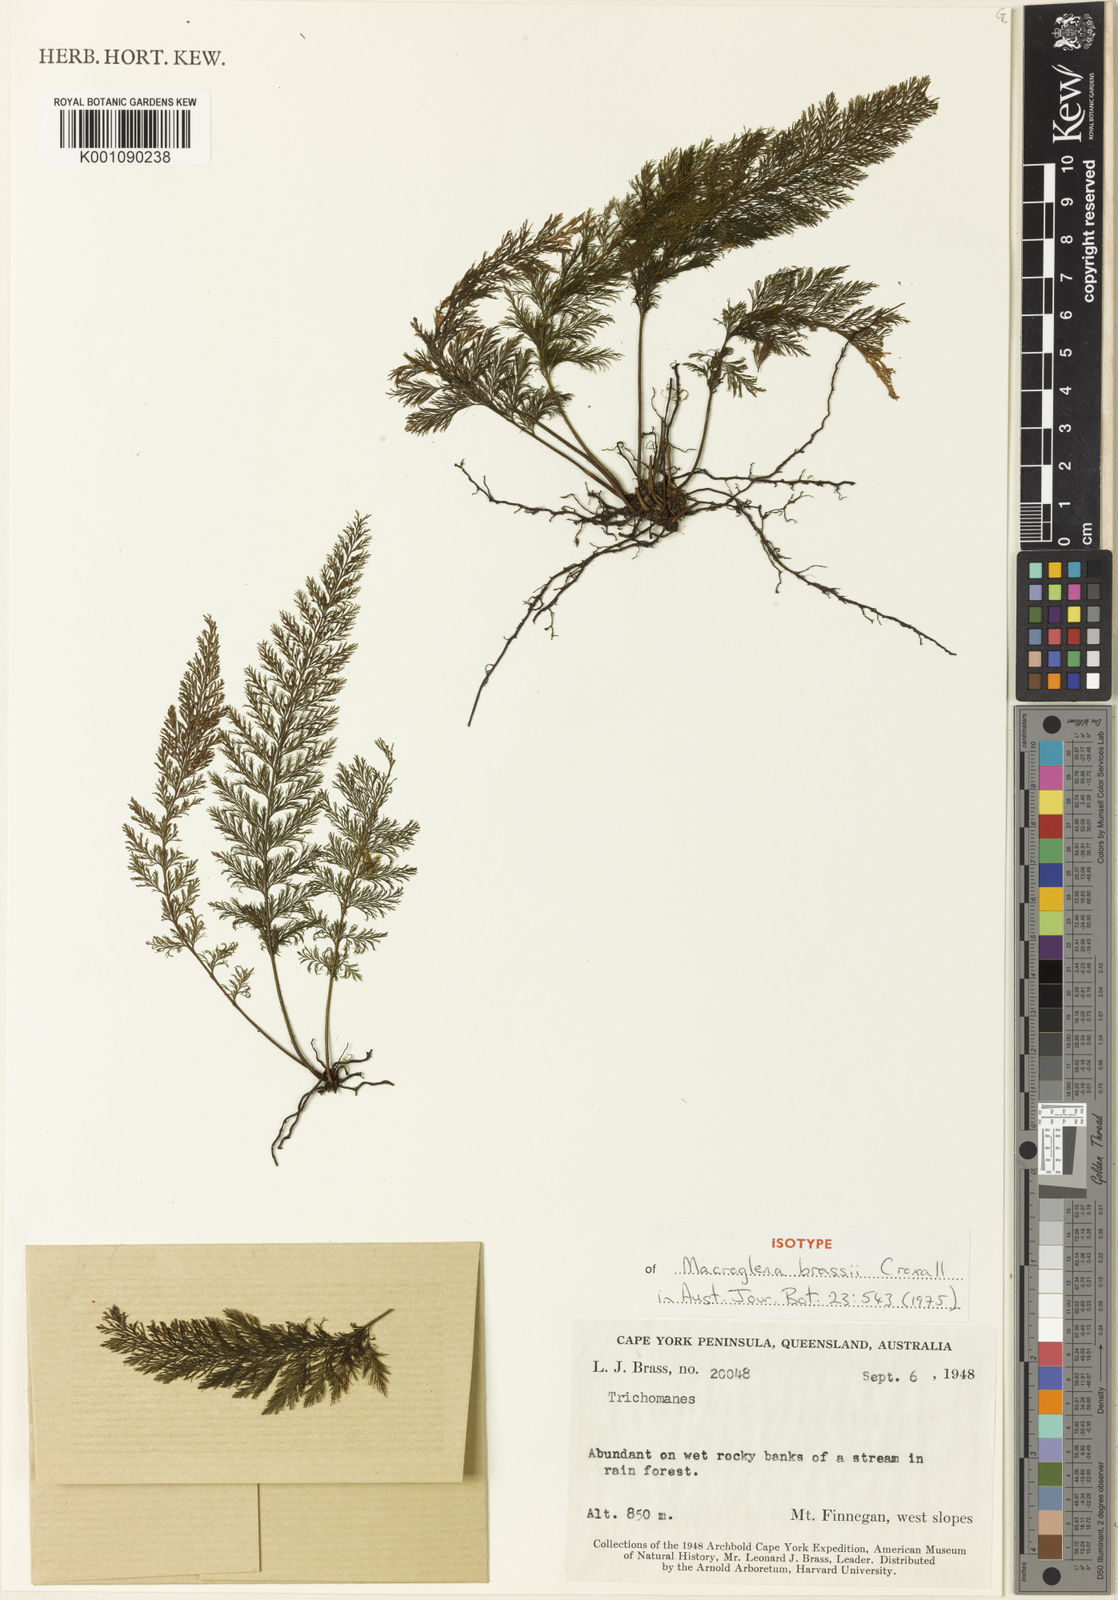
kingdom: Plantae
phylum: Tracheophyta
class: Polypodiopsida
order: Hymenophyllales
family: Hymenophyllaceae
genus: Trichomanes
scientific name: Trichomanes
